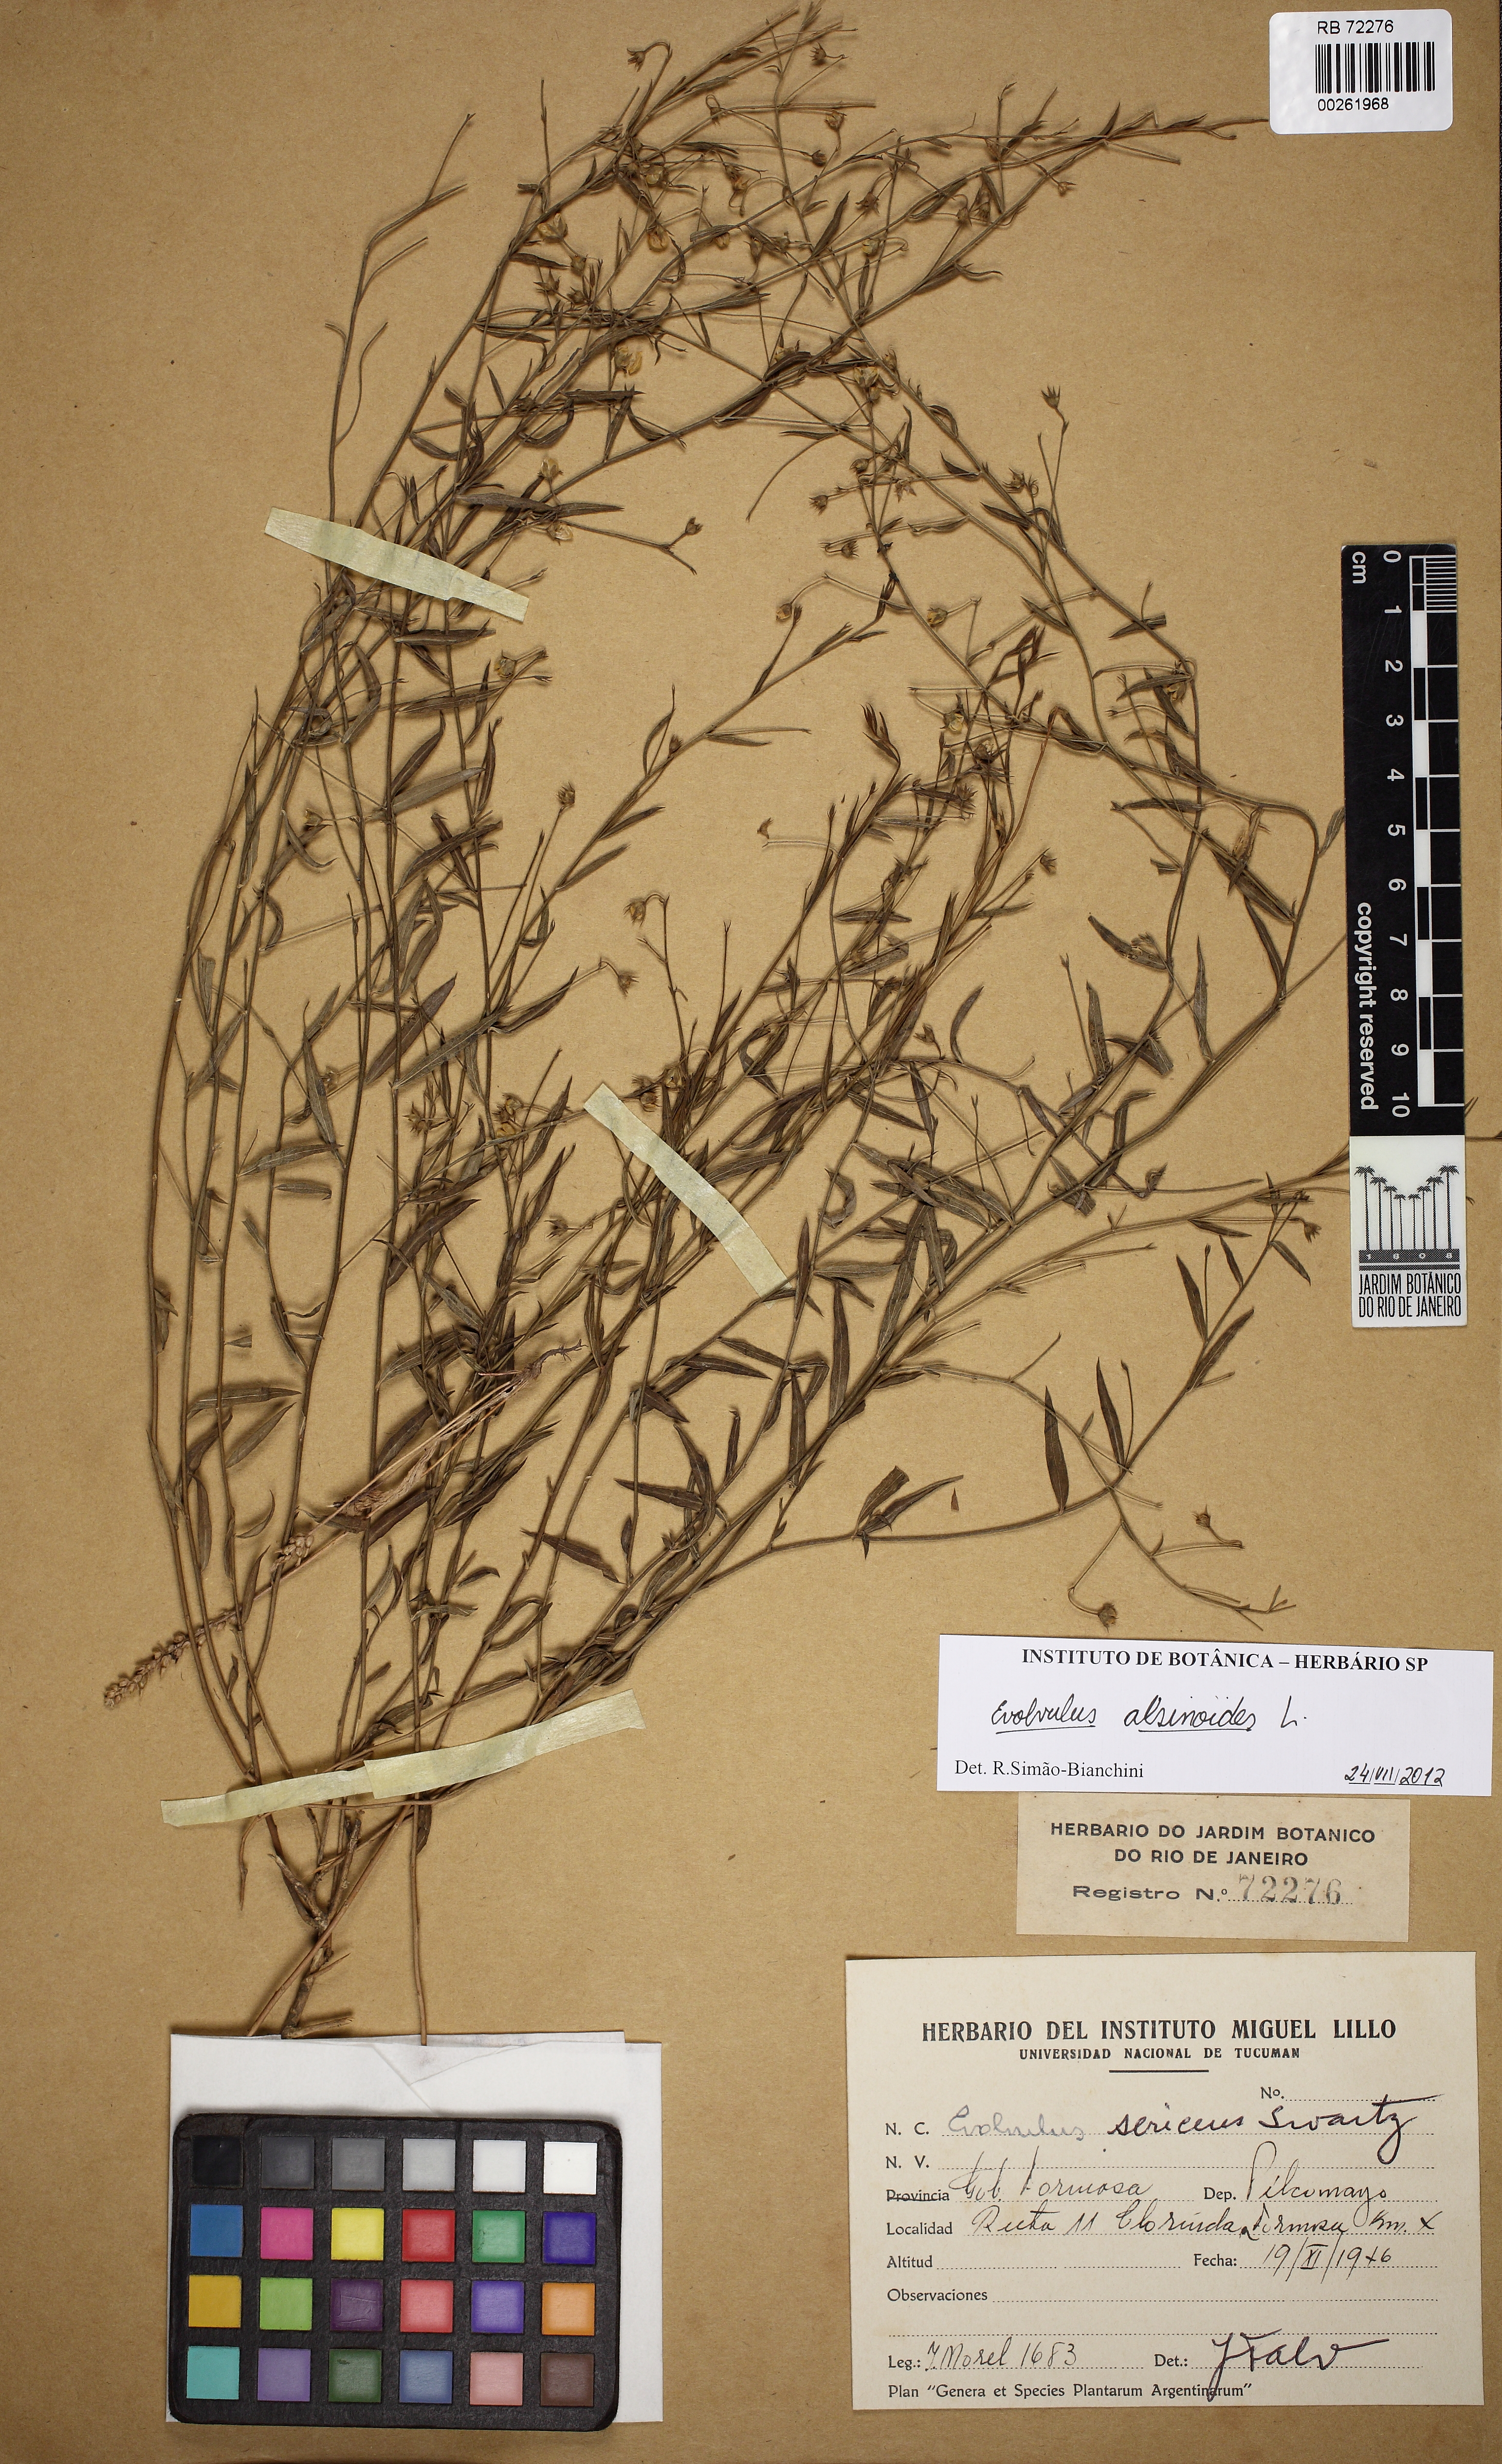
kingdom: Plantae
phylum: Tracheophyta
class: Magnoliopsida
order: Solanales
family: Convolvulaceae
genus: Evolvulus
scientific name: Evolvulus alsinoides
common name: Slender dwarf morning-glory
